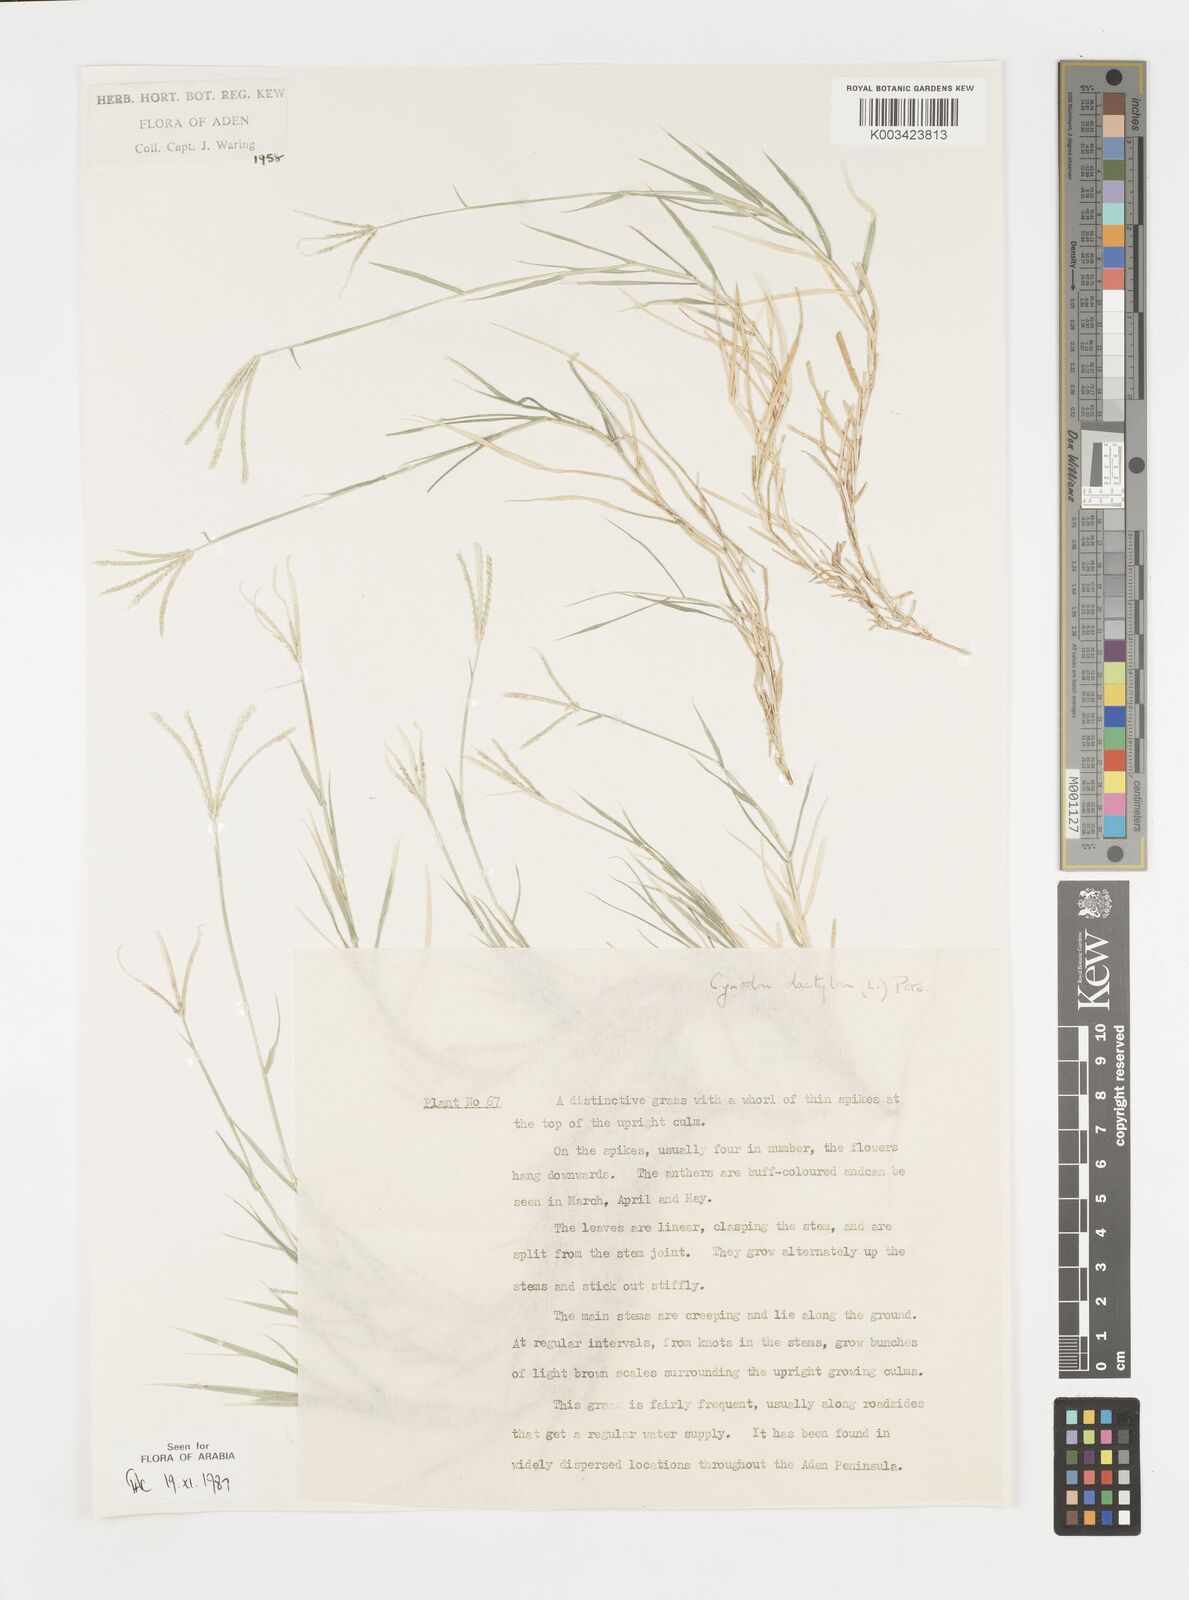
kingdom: Plantae
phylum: Tracheophyta
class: Liliopsida
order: Poales
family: Poaceae
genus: Cynodon
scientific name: Cynodon dactylon
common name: Bermuda grass
